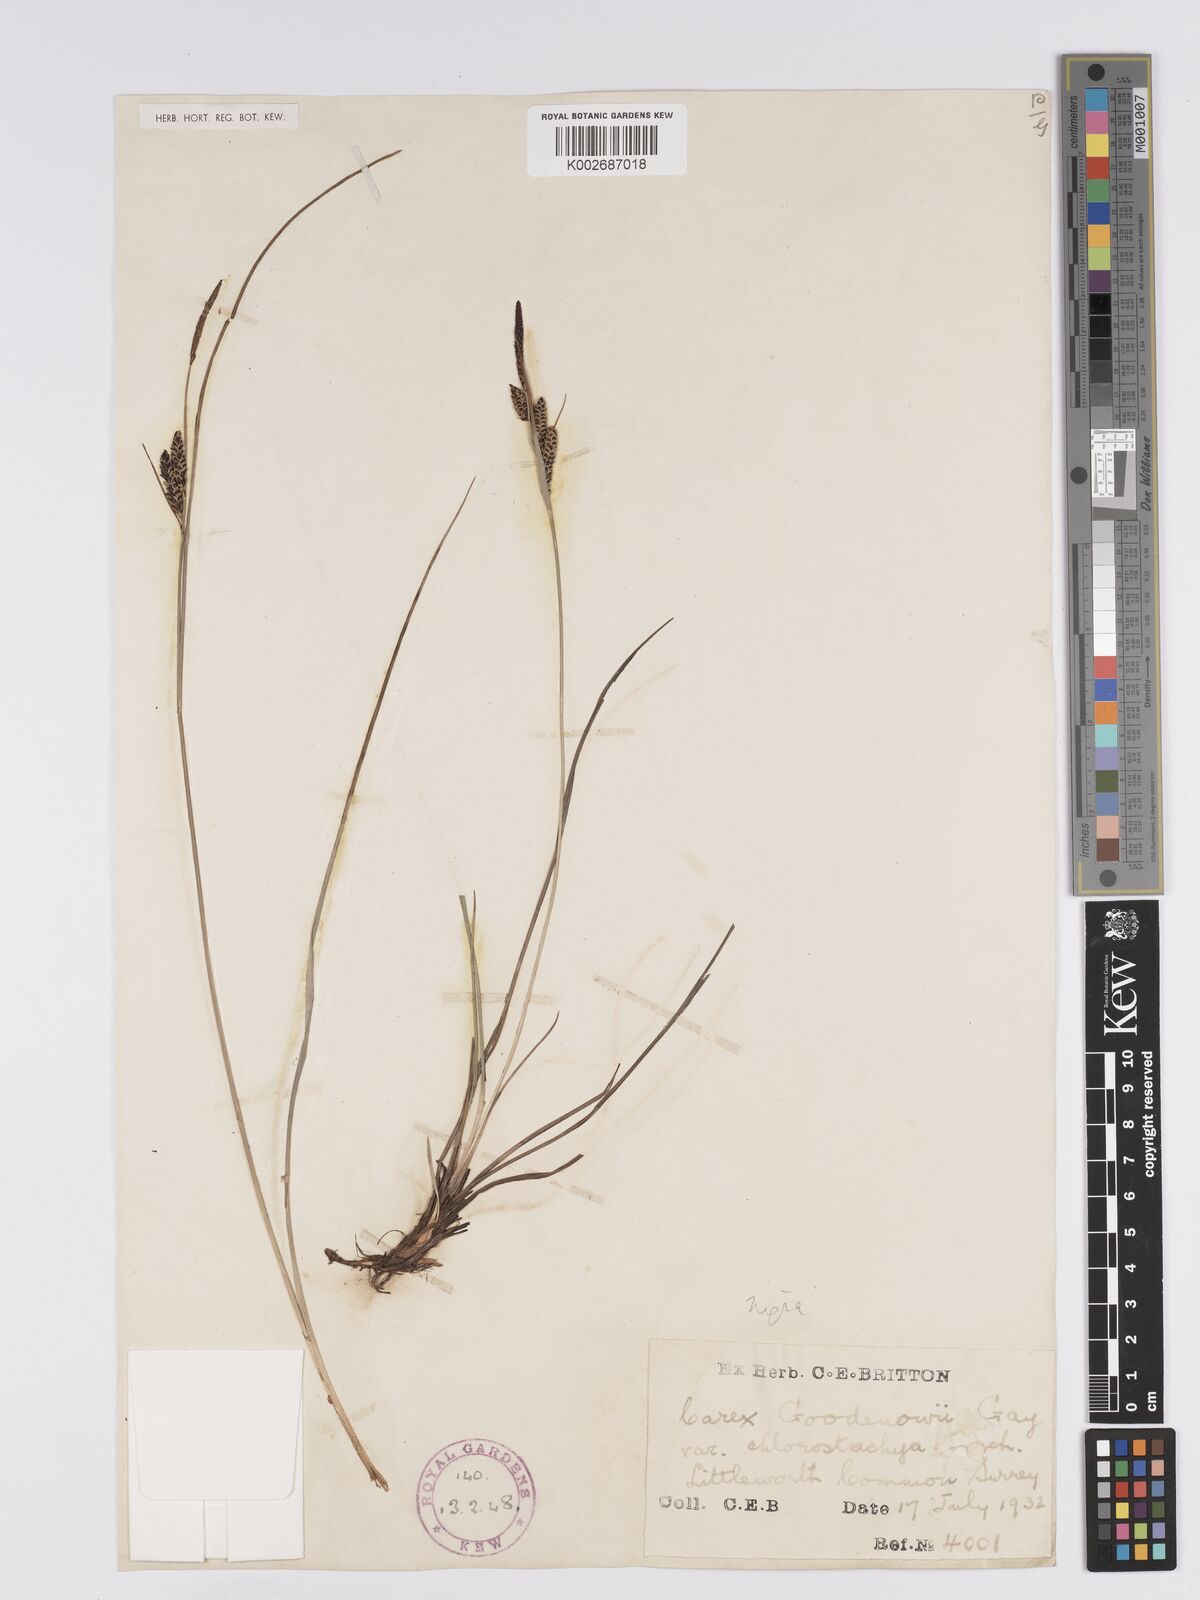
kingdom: Plantae
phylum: Tracheophyta
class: Liliopsida
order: Poales
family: Cyperaceae
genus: Carex
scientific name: Carex nigra
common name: Common sedge
